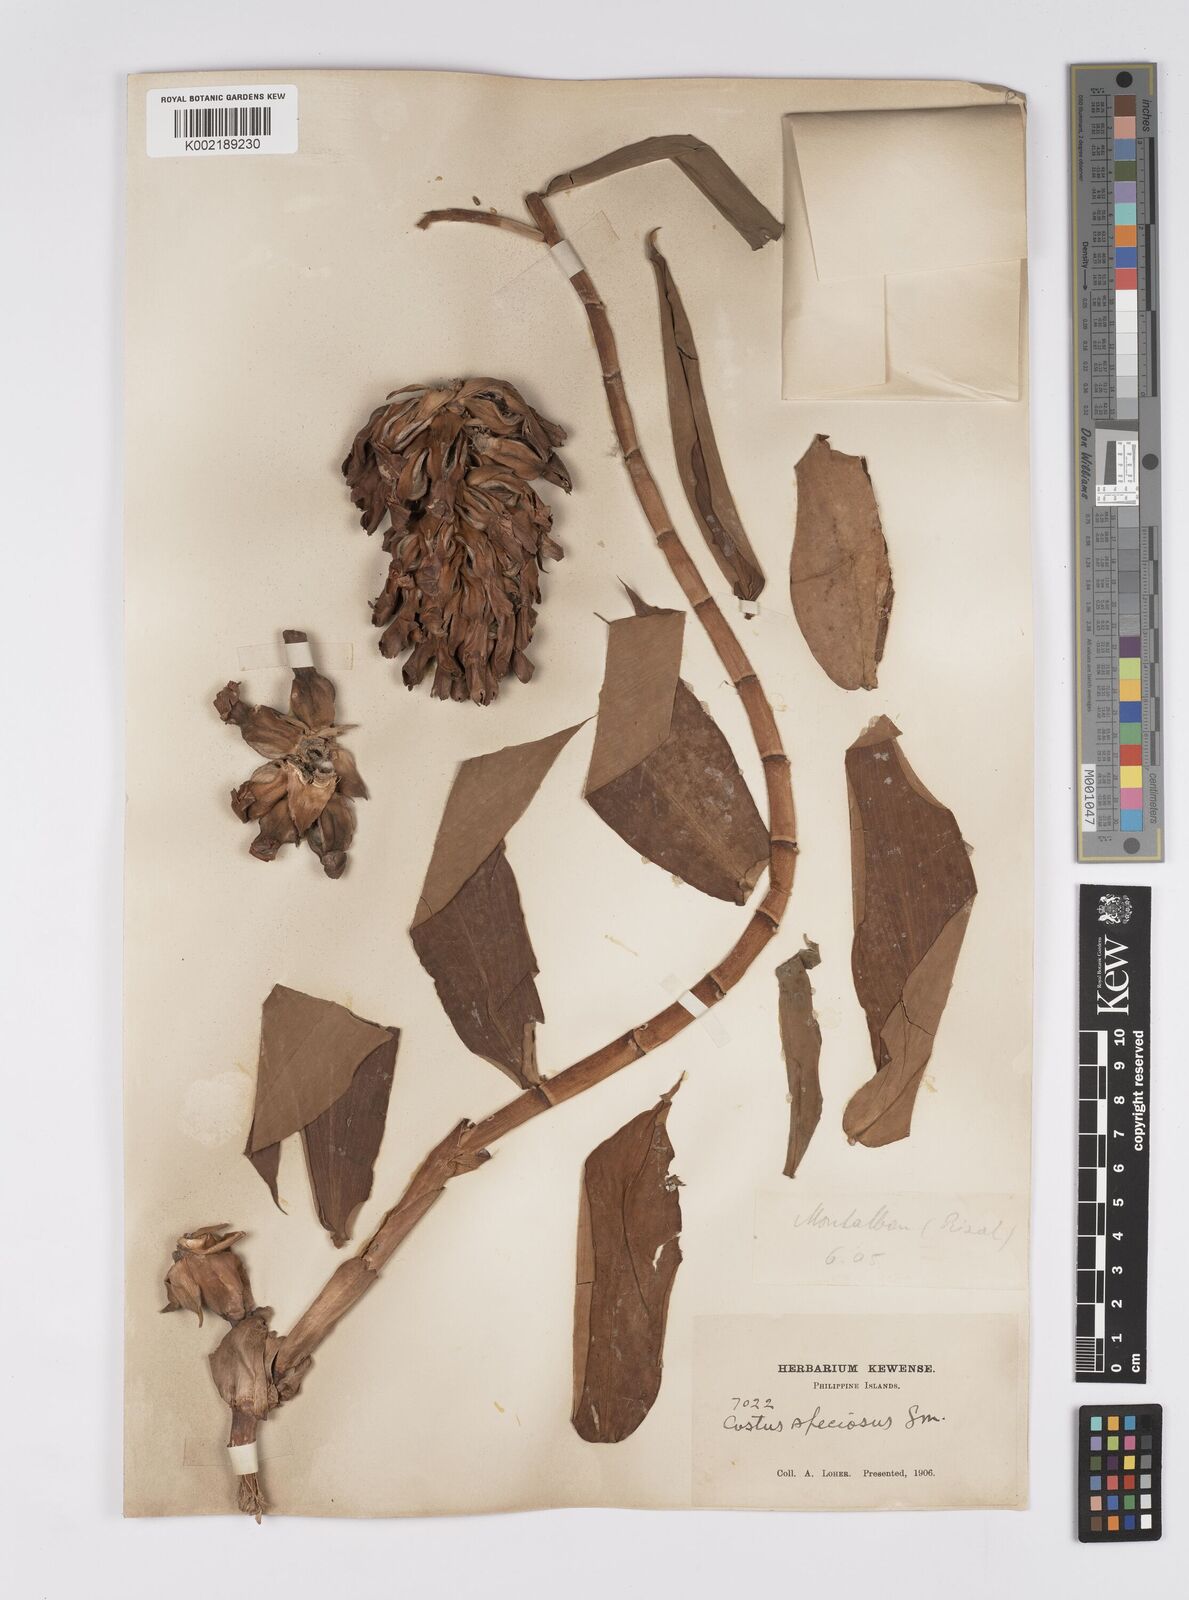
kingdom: Plantae
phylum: Tracheophyta
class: Liliopsida
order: Zingiberales
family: Costaceae
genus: Hellenia
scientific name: Hellenia speciosa
